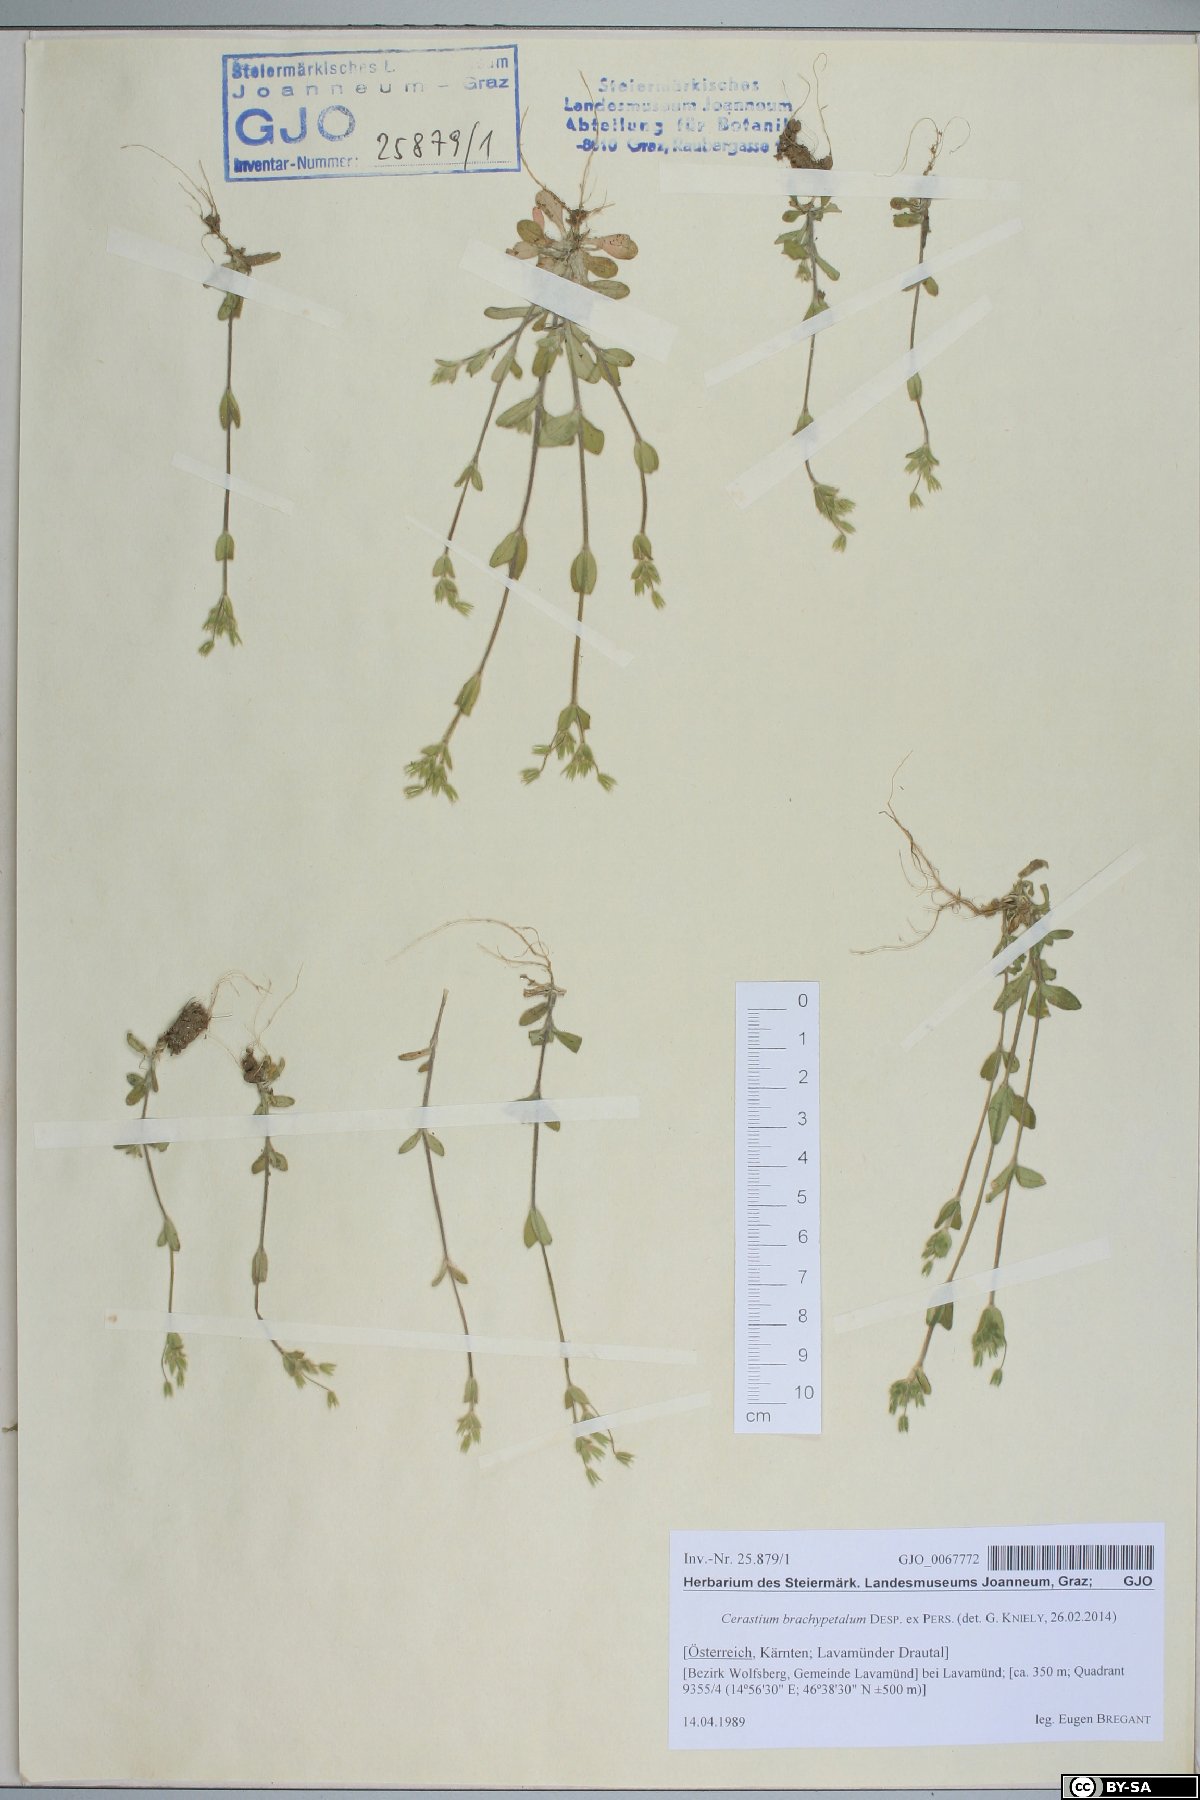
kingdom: Plantae
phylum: Tracheophyta
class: Magnoliopsida
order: Caryophyllales
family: Caryophyllaceae
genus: Cerastium
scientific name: Cerastium brachypetalum
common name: Grey mouse-ear
